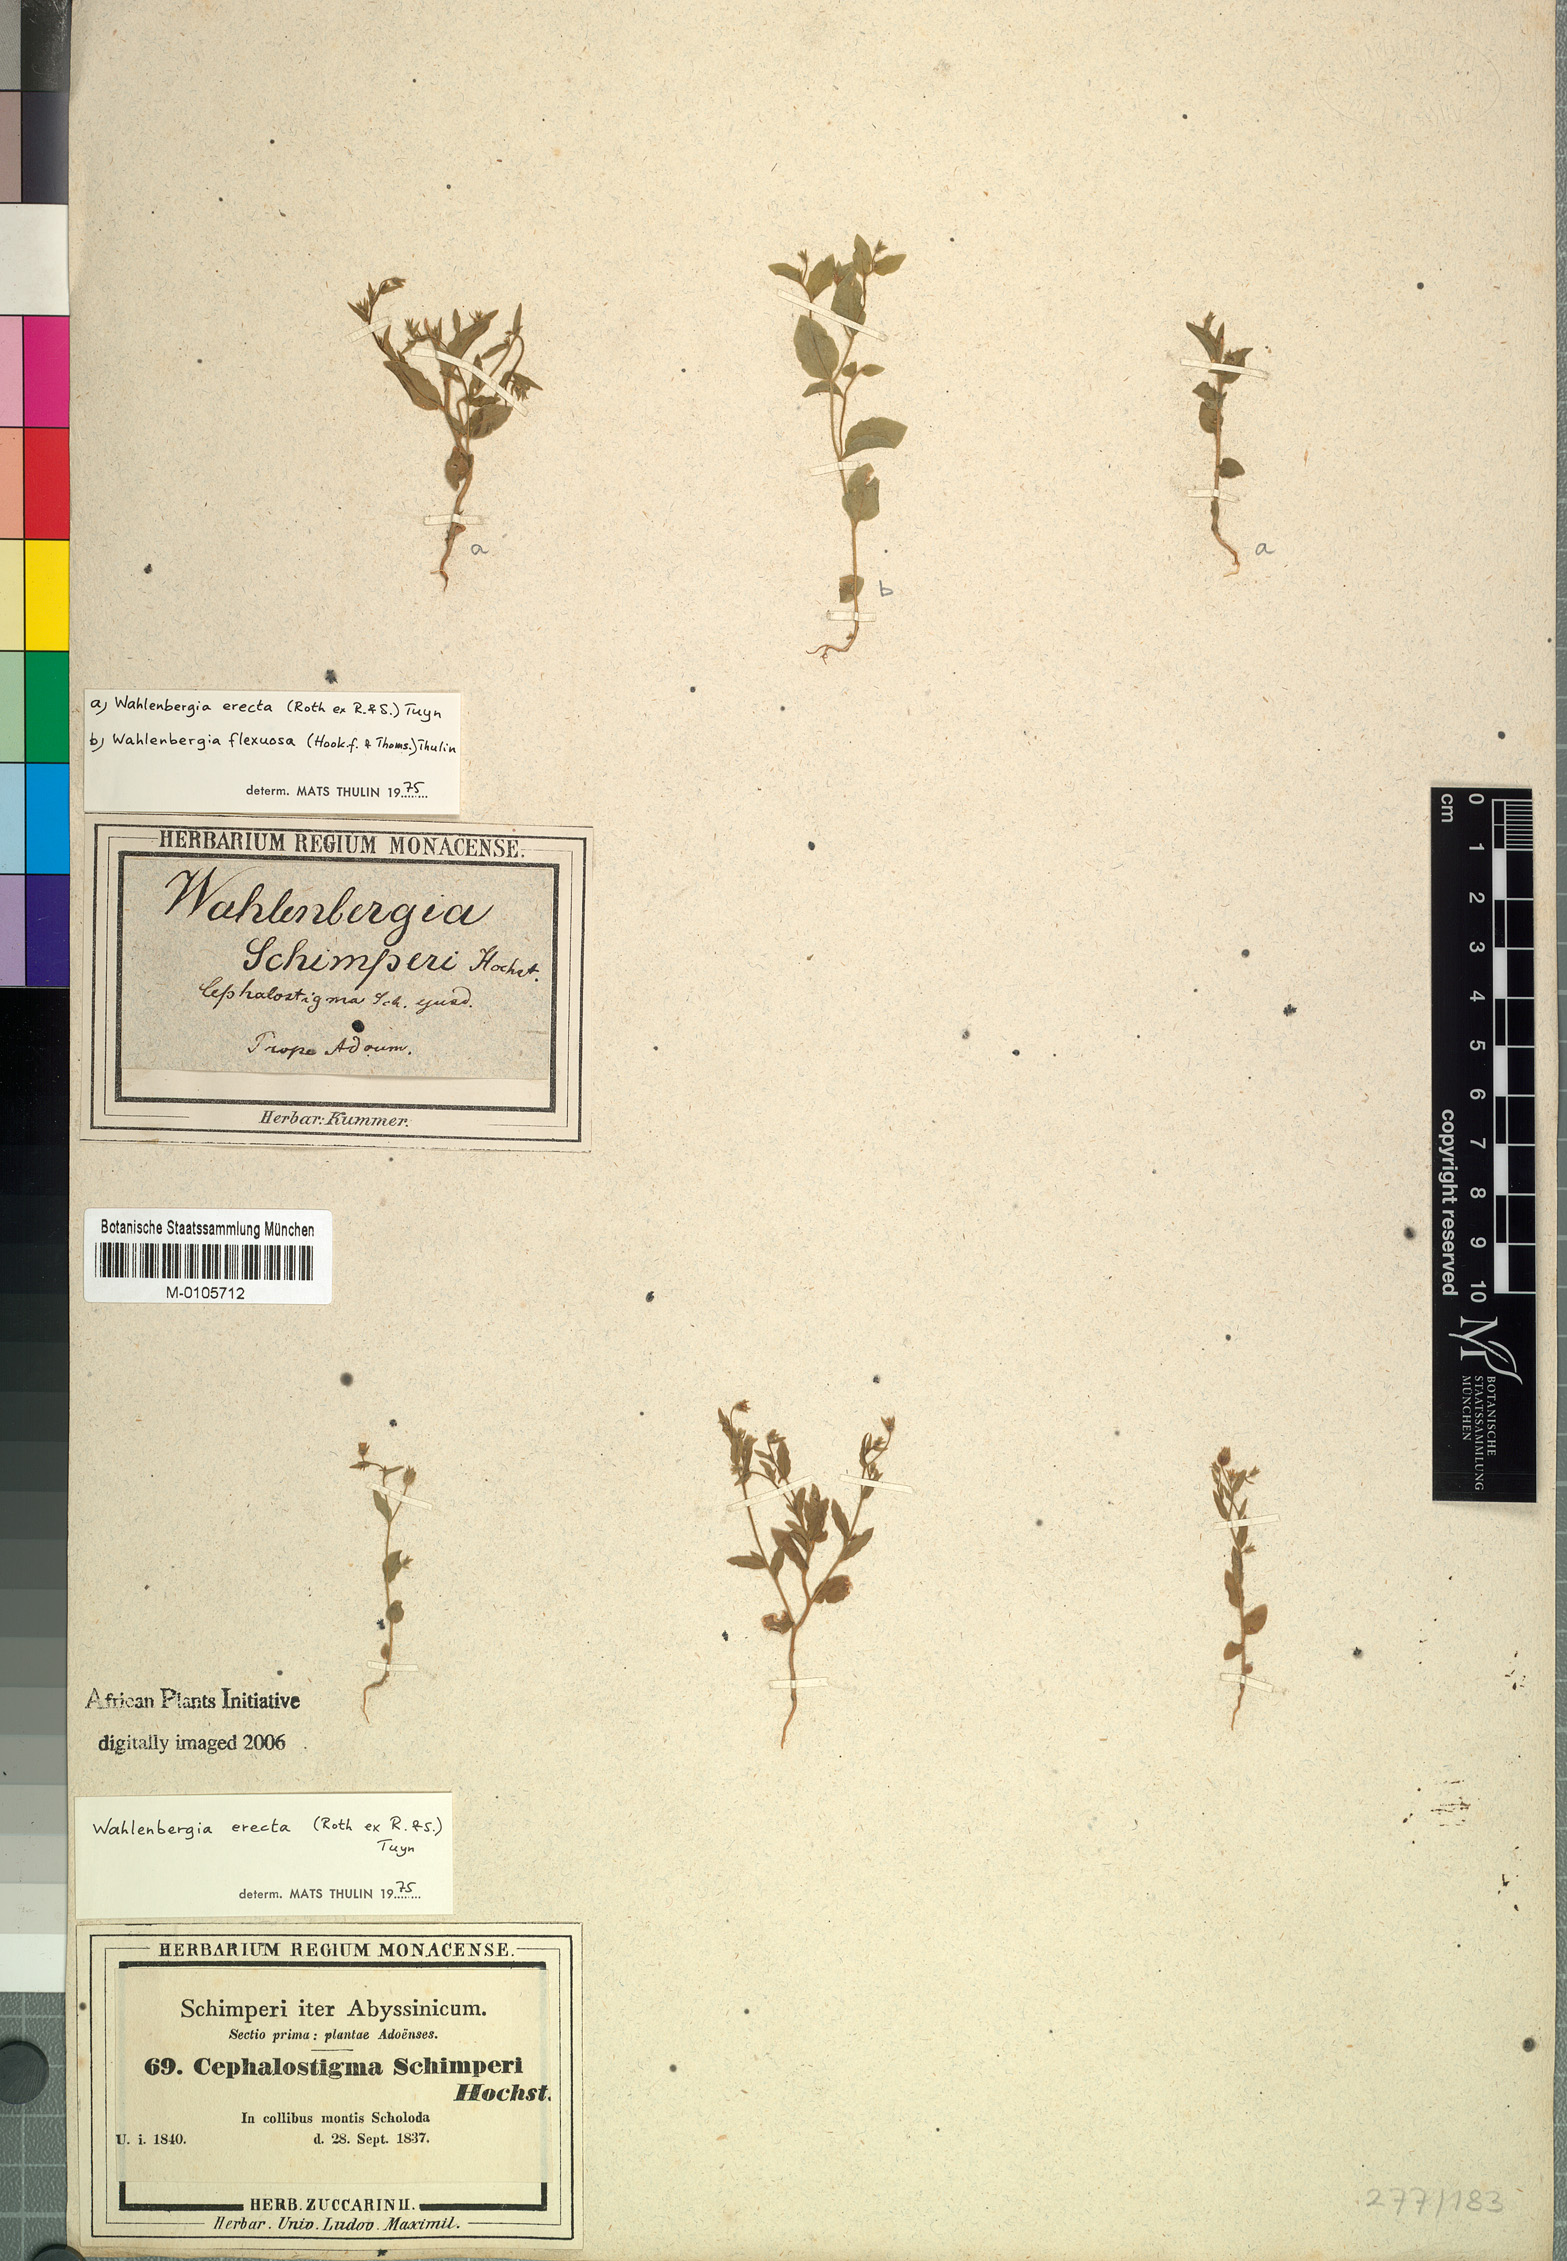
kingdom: Plantae
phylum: Tracheophyta
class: Magnoliopsida
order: Asterales
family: Campanulaceae
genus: Wahlenbergia
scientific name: Wahlenbergia erecta
